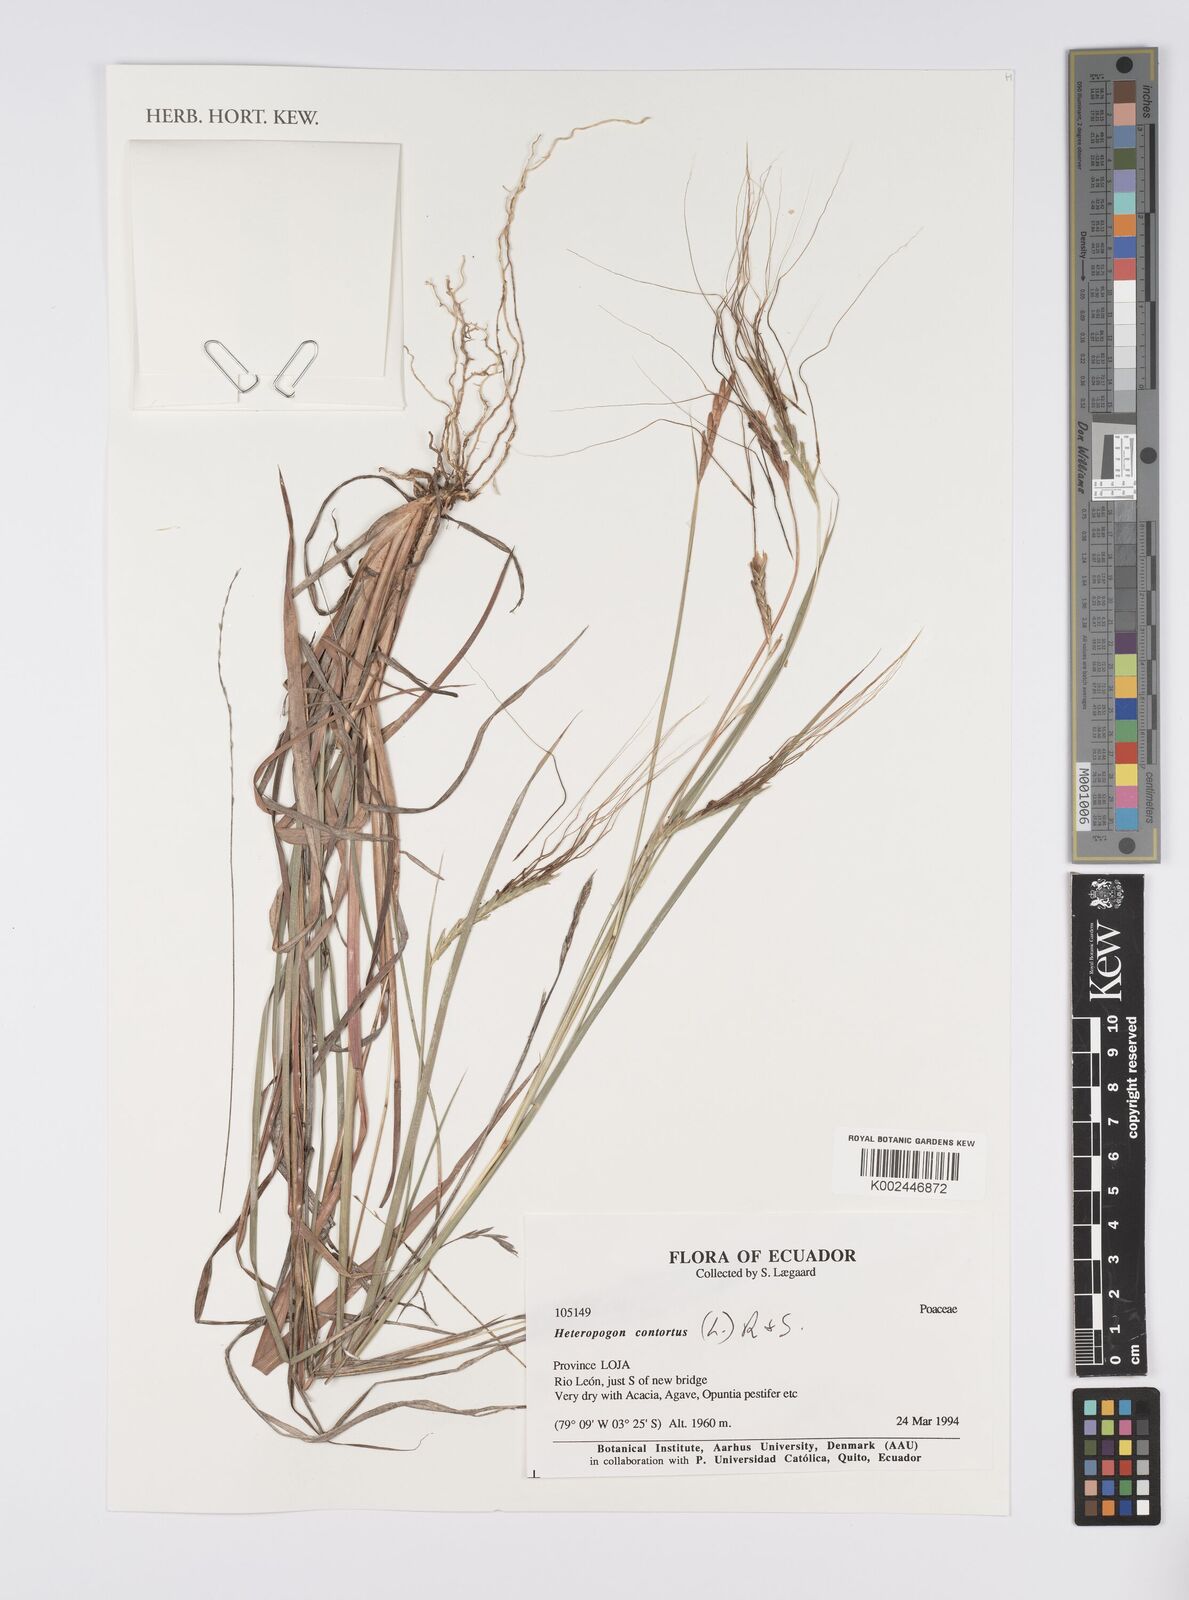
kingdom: Plantae
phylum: Tracheophyta
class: Liliopsida
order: Poales
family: Poaceae
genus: Heteropogon
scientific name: Heteropogon contortus
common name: Tanglehead
